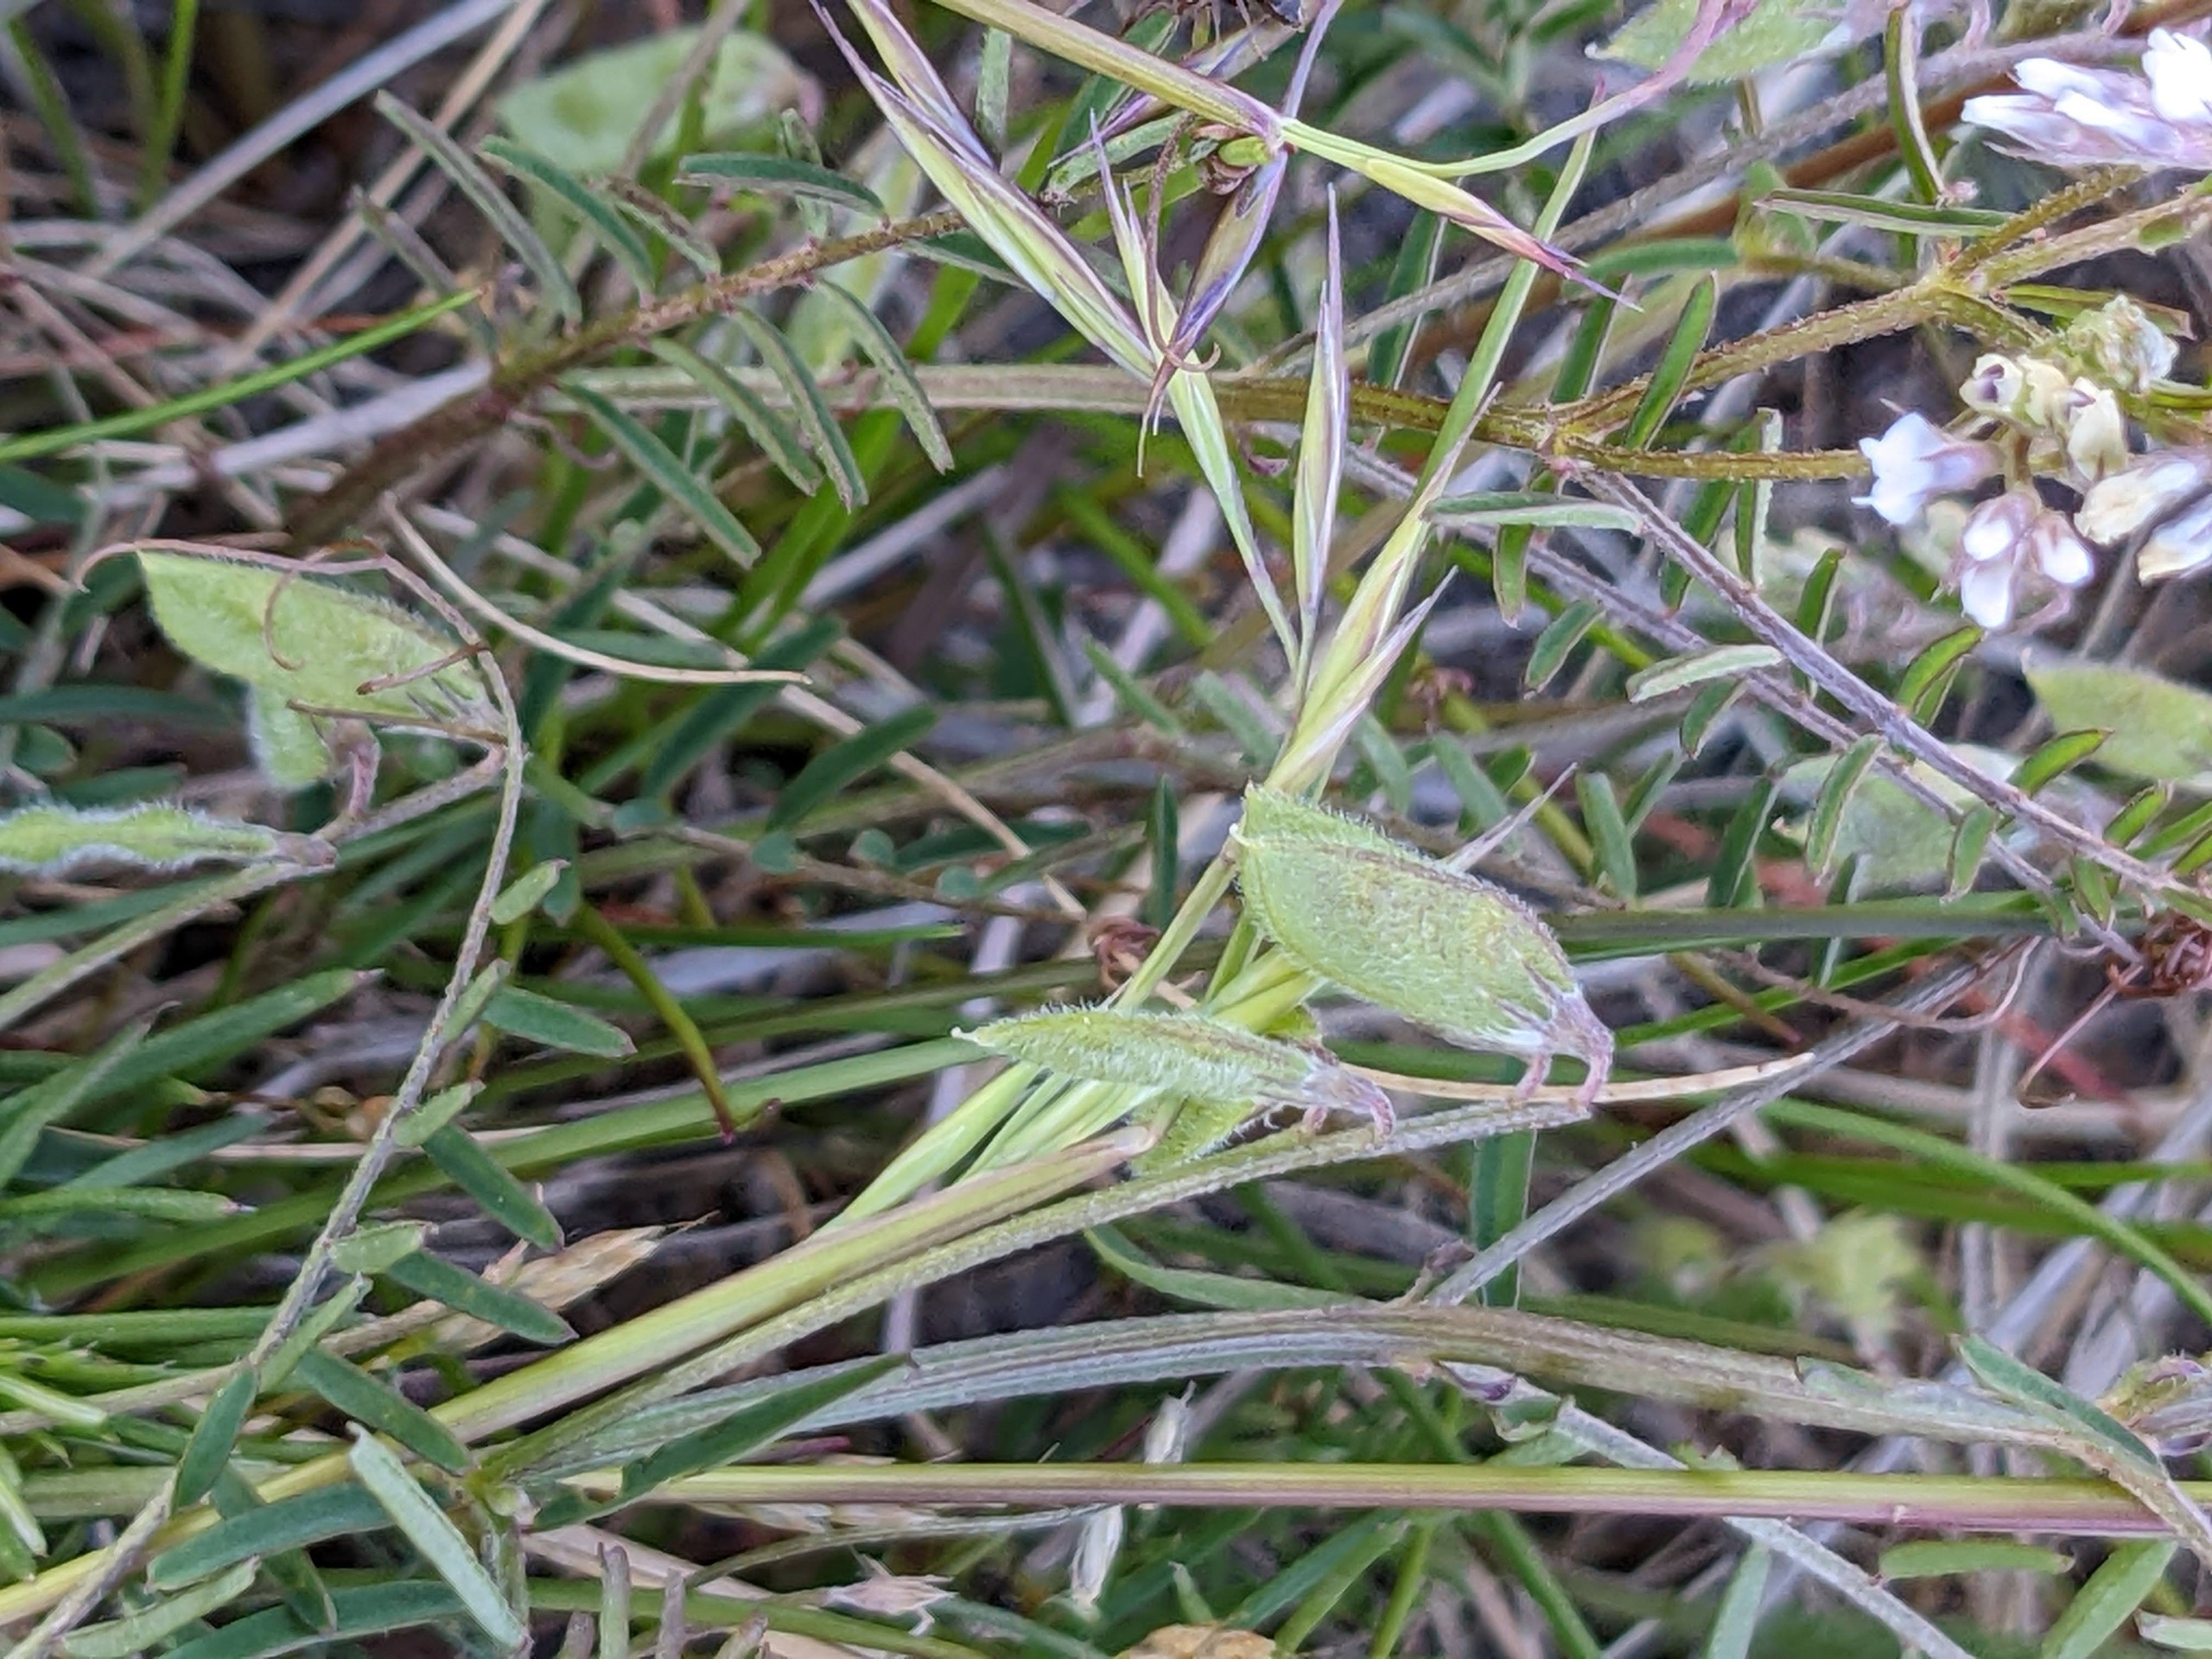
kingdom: Plantae
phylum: Tracheophyta
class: Magnoliopsida
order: Fabales
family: Fabaceae
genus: Vicia
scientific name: Vicia hirsuta
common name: Tofrøet vikke
